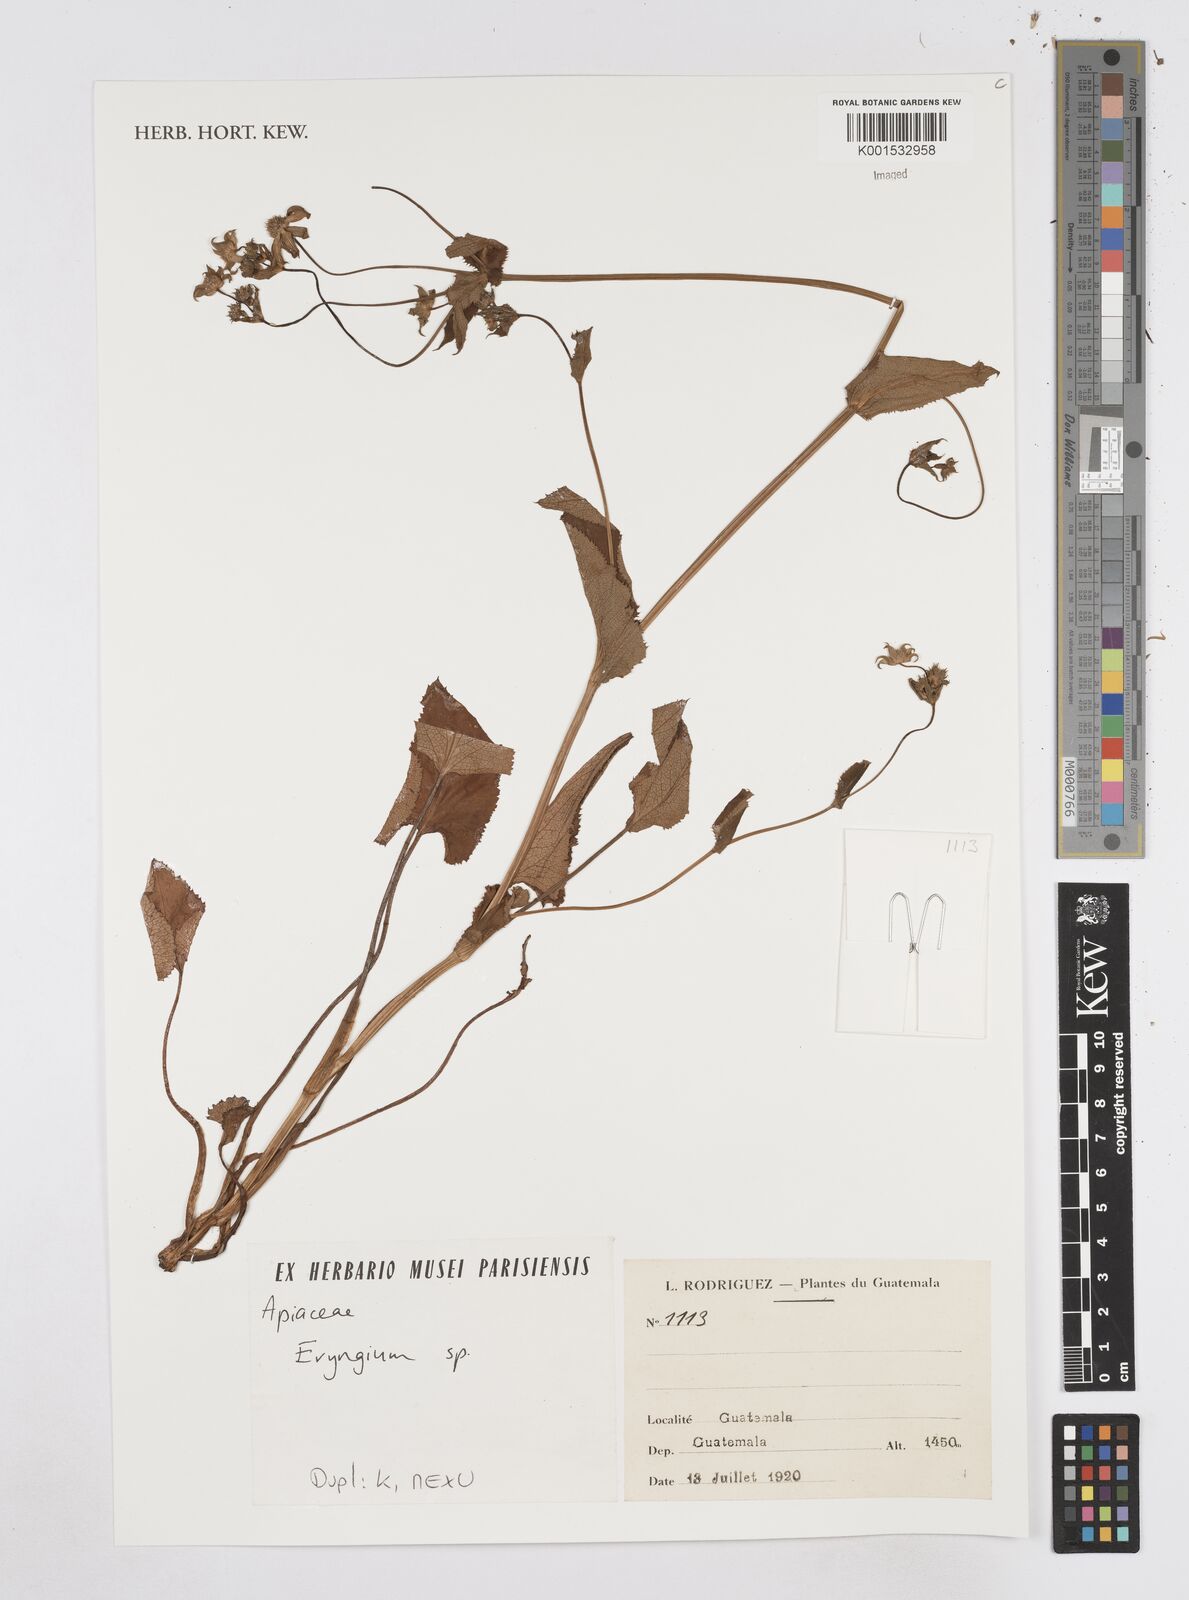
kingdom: Plantae
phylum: Tracheophyta
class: Magnoliopsida
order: Apiales
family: Apiaceae
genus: Eryngium
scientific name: Eryngium
